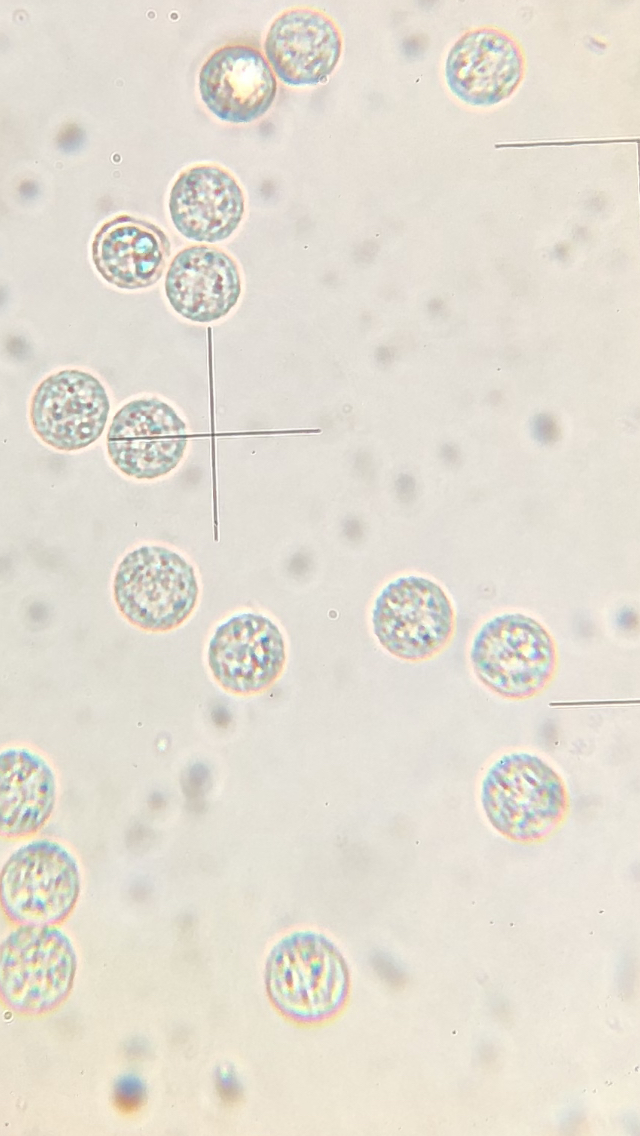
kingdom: Protozoa
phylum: Mycetozoa
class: Myxomycetes
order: Cribrariales
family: Tubiferaceae
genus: Lycogala
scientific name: Lycogala flavofuscum
